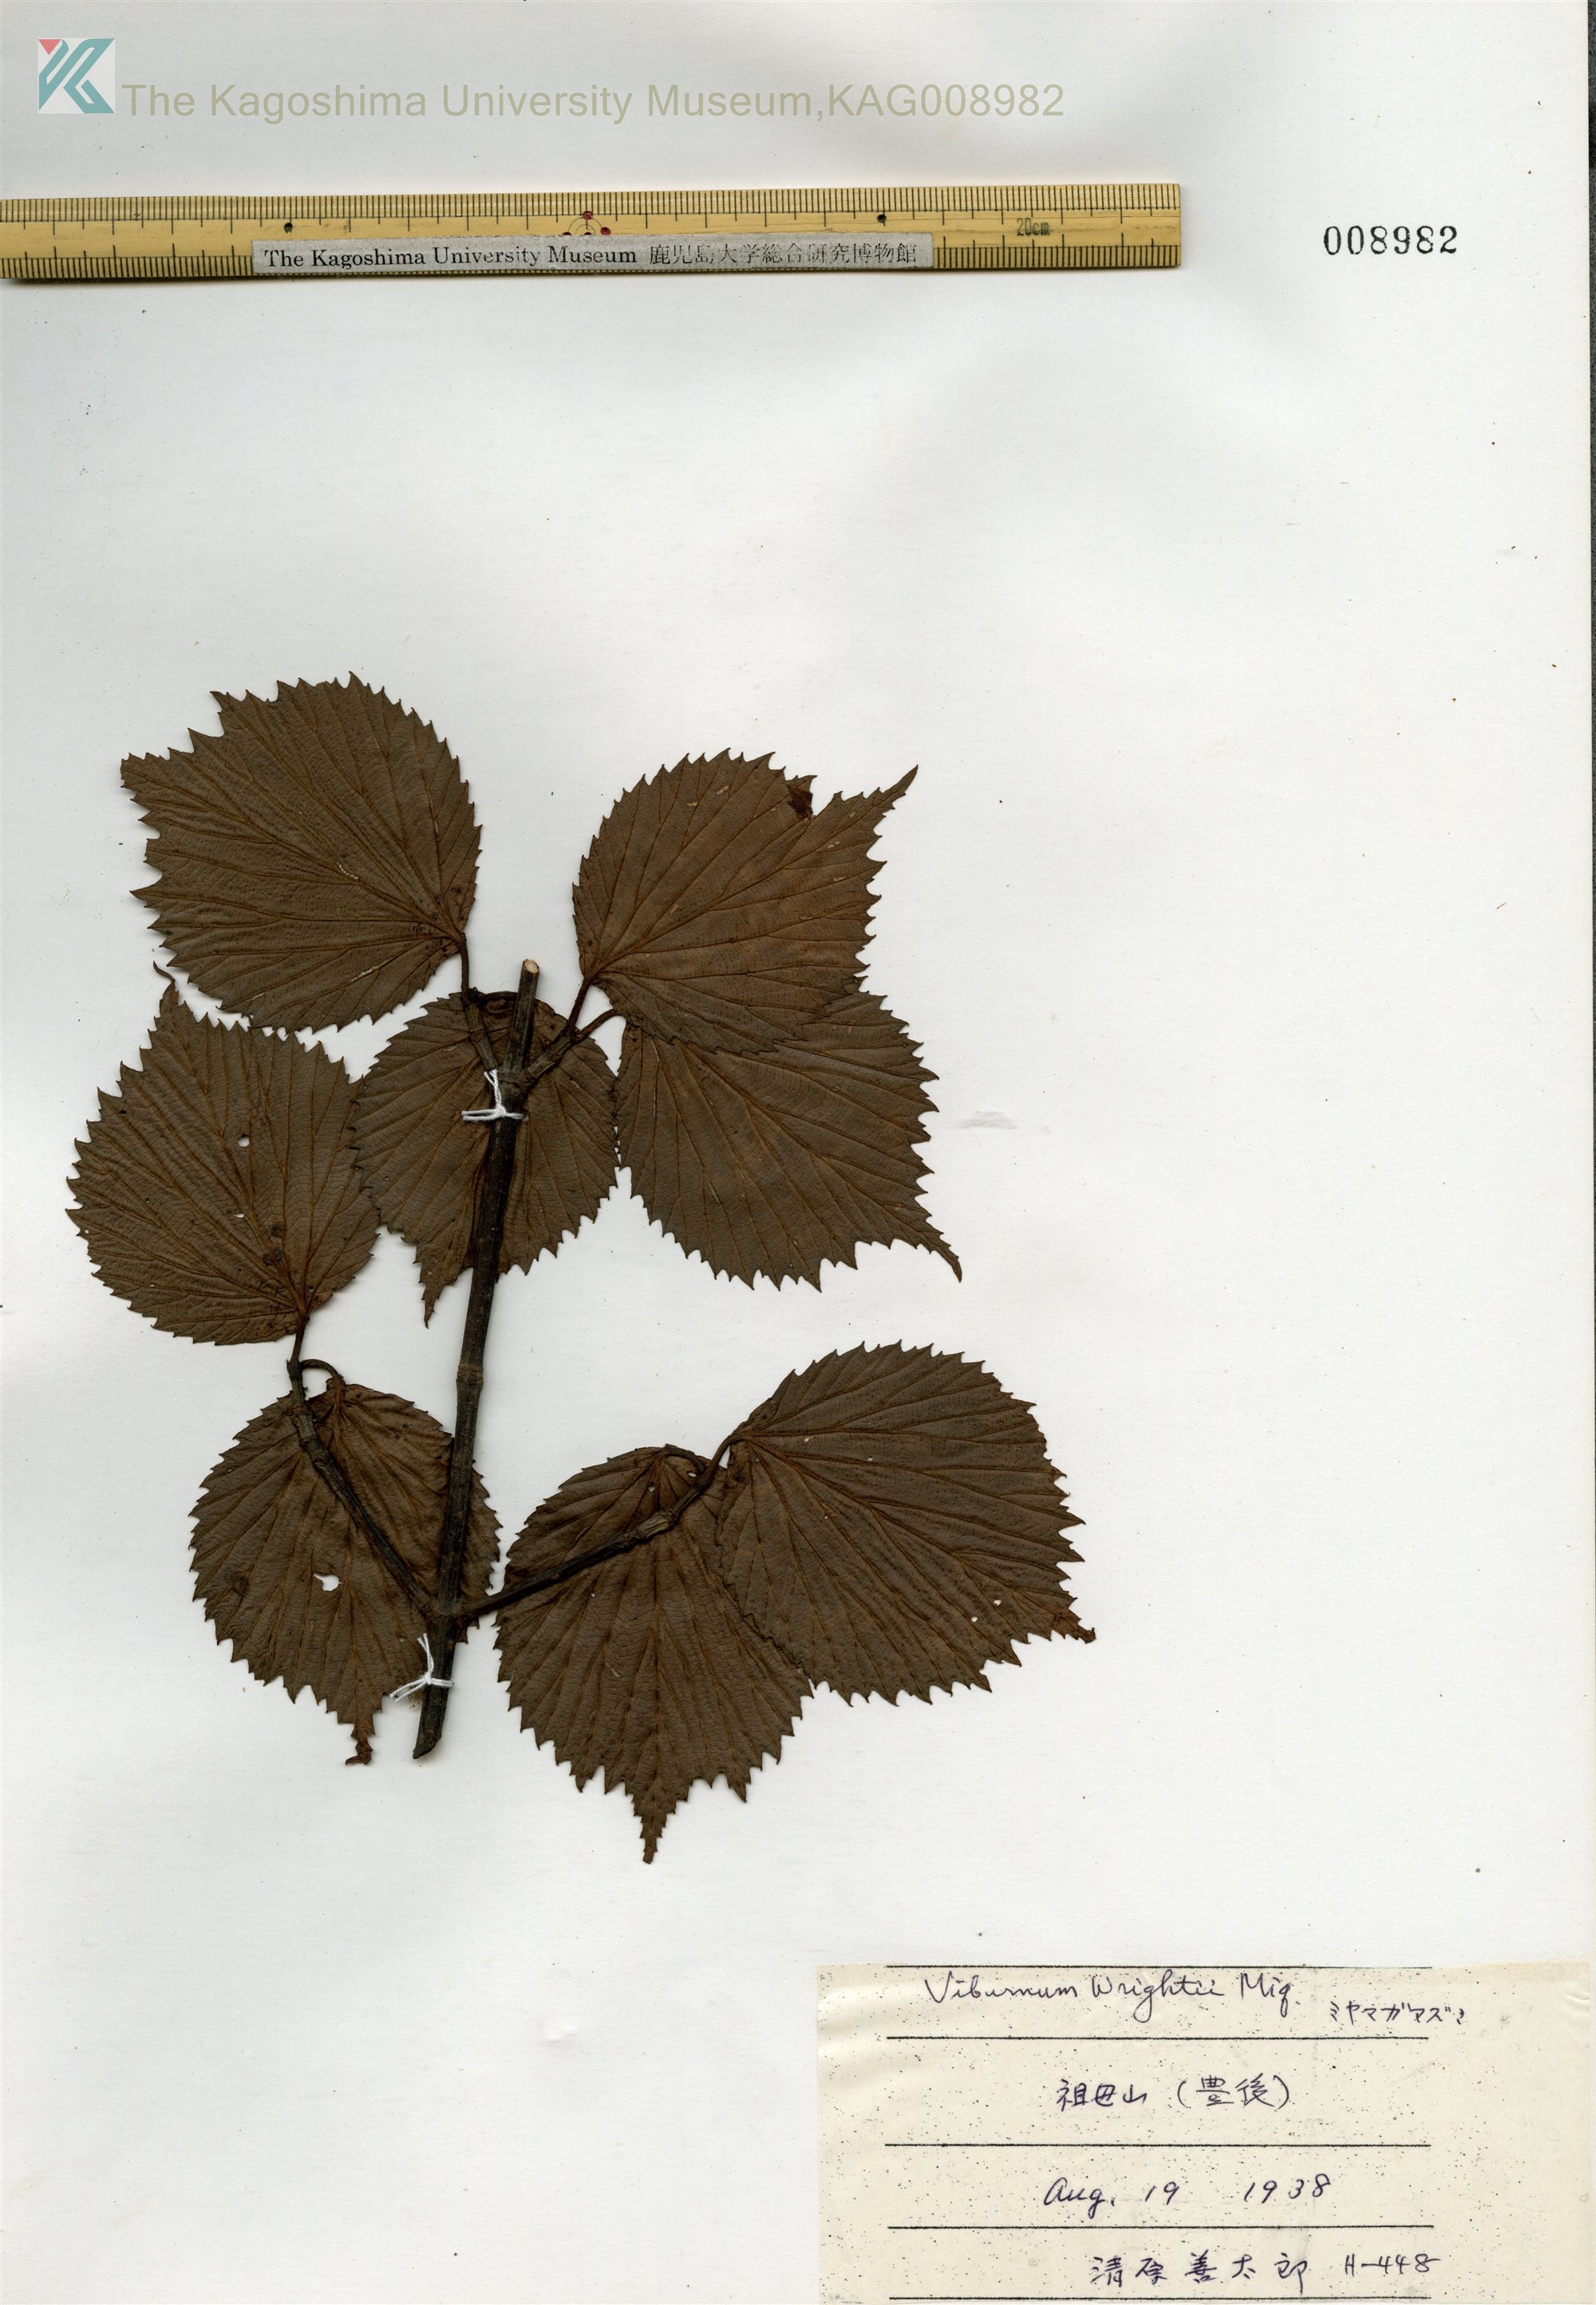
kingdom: Plantae
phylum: Tracheophyta
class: Magnoliopsida
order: Dipsacales
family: Viburnaceae
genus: Viburnum
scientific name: Viburnum wrightii
